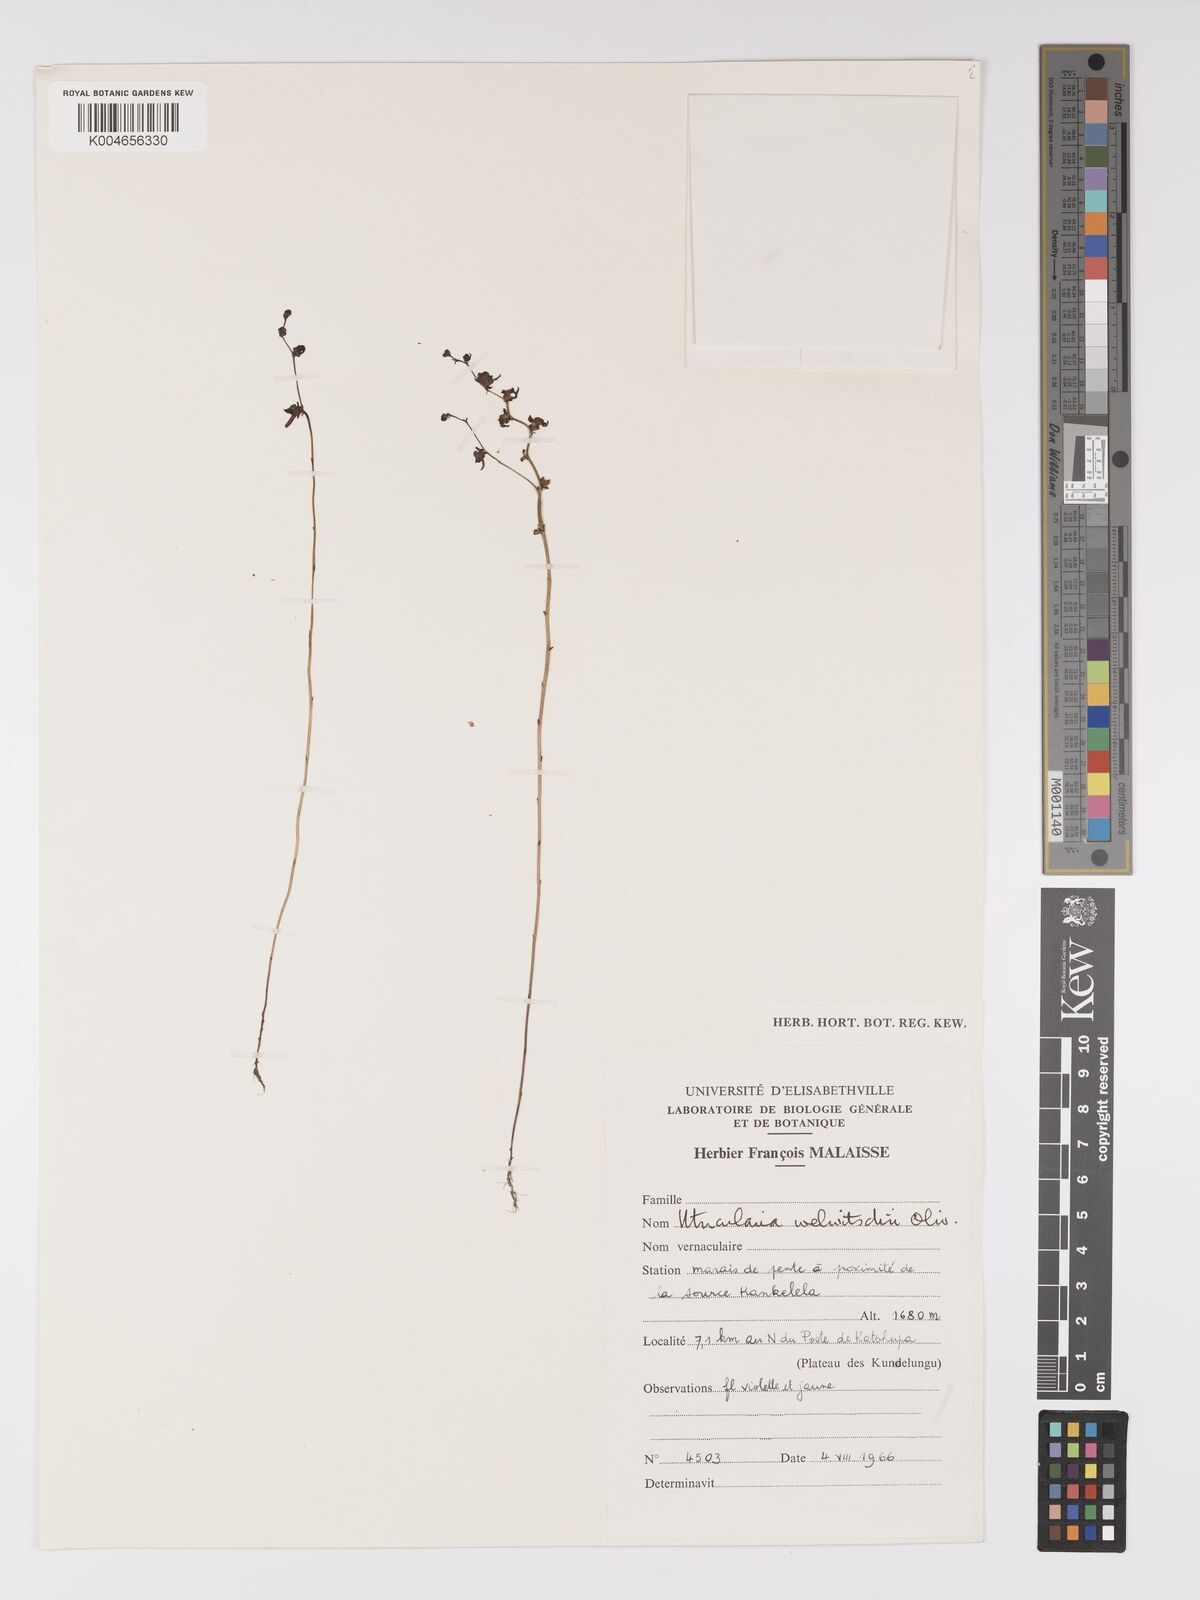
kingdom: Plantae
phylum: Tracheophyta
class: Magnoliopsida
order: Lamiales
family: Lentibulariaceae
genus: Utricularia
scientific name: Utricularia welwitschii
